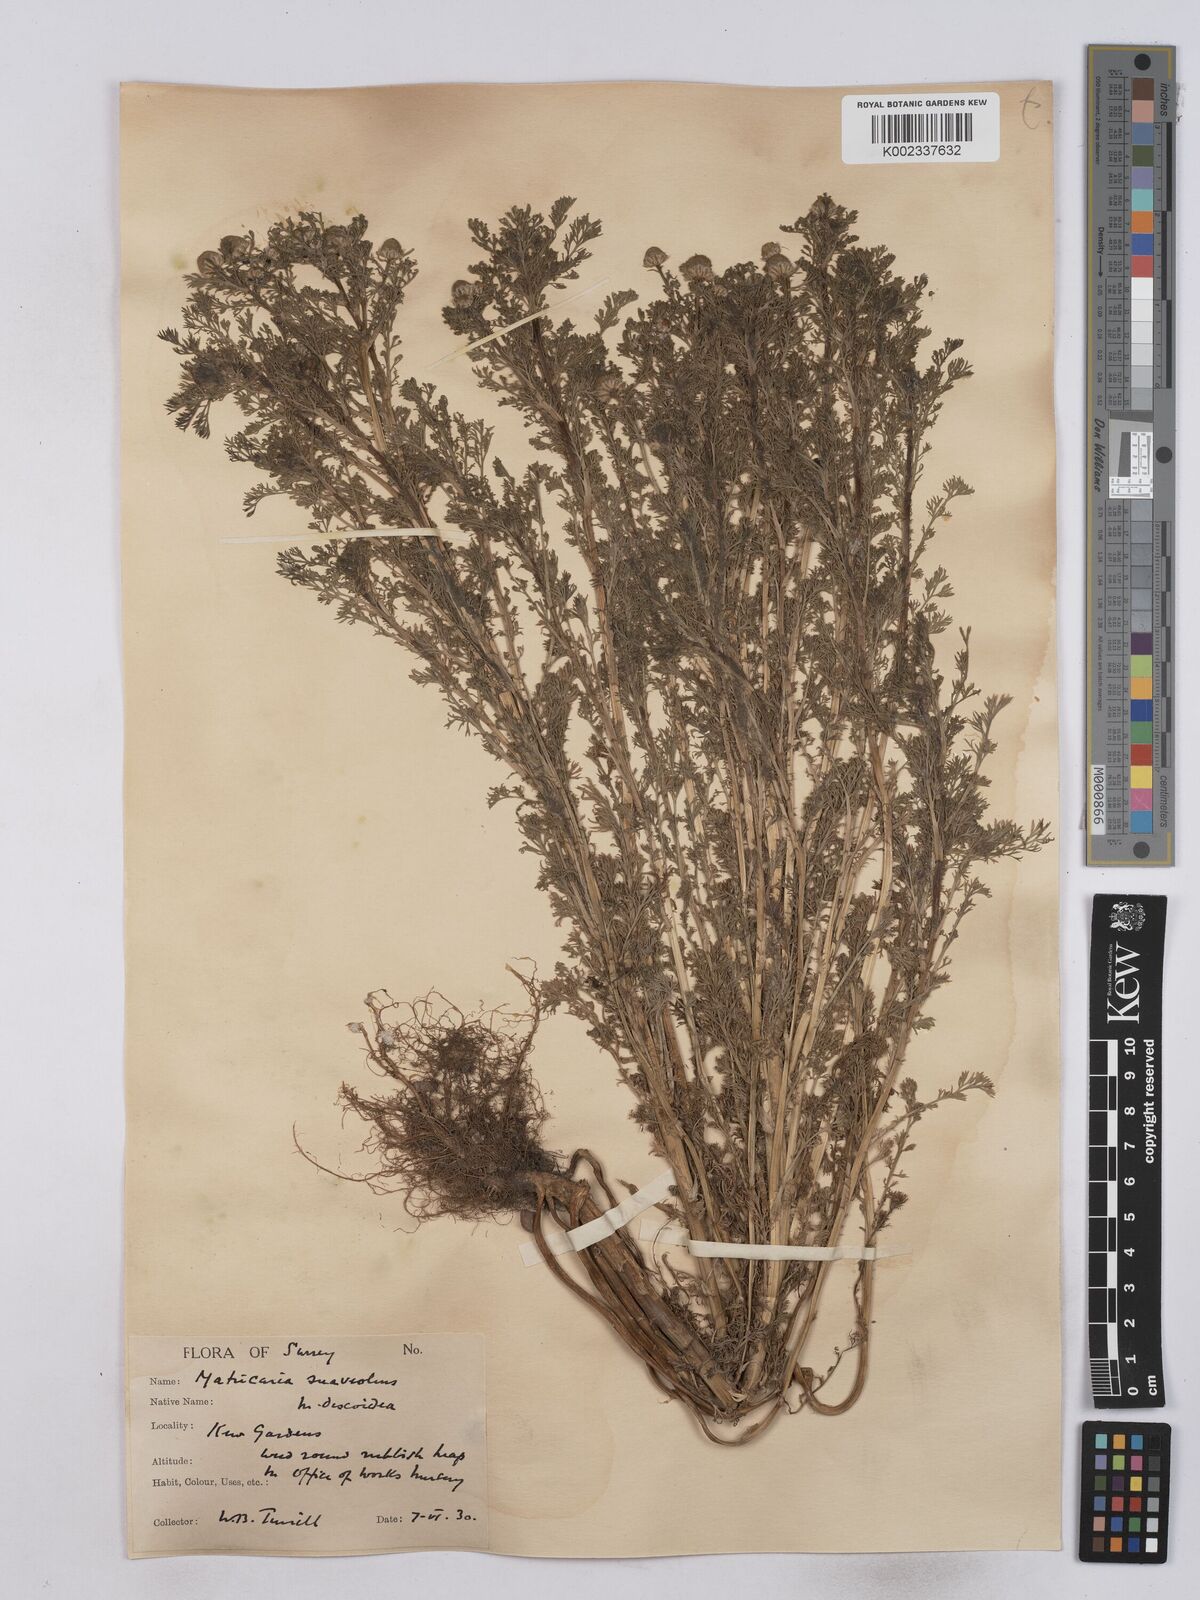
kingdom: Plantae
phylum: Tracheophyta
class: Magnoliopsida
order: Asterales
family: Asteraceae
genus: Matricaria
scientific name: Matricaria discoidea
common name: Disc mayweed
